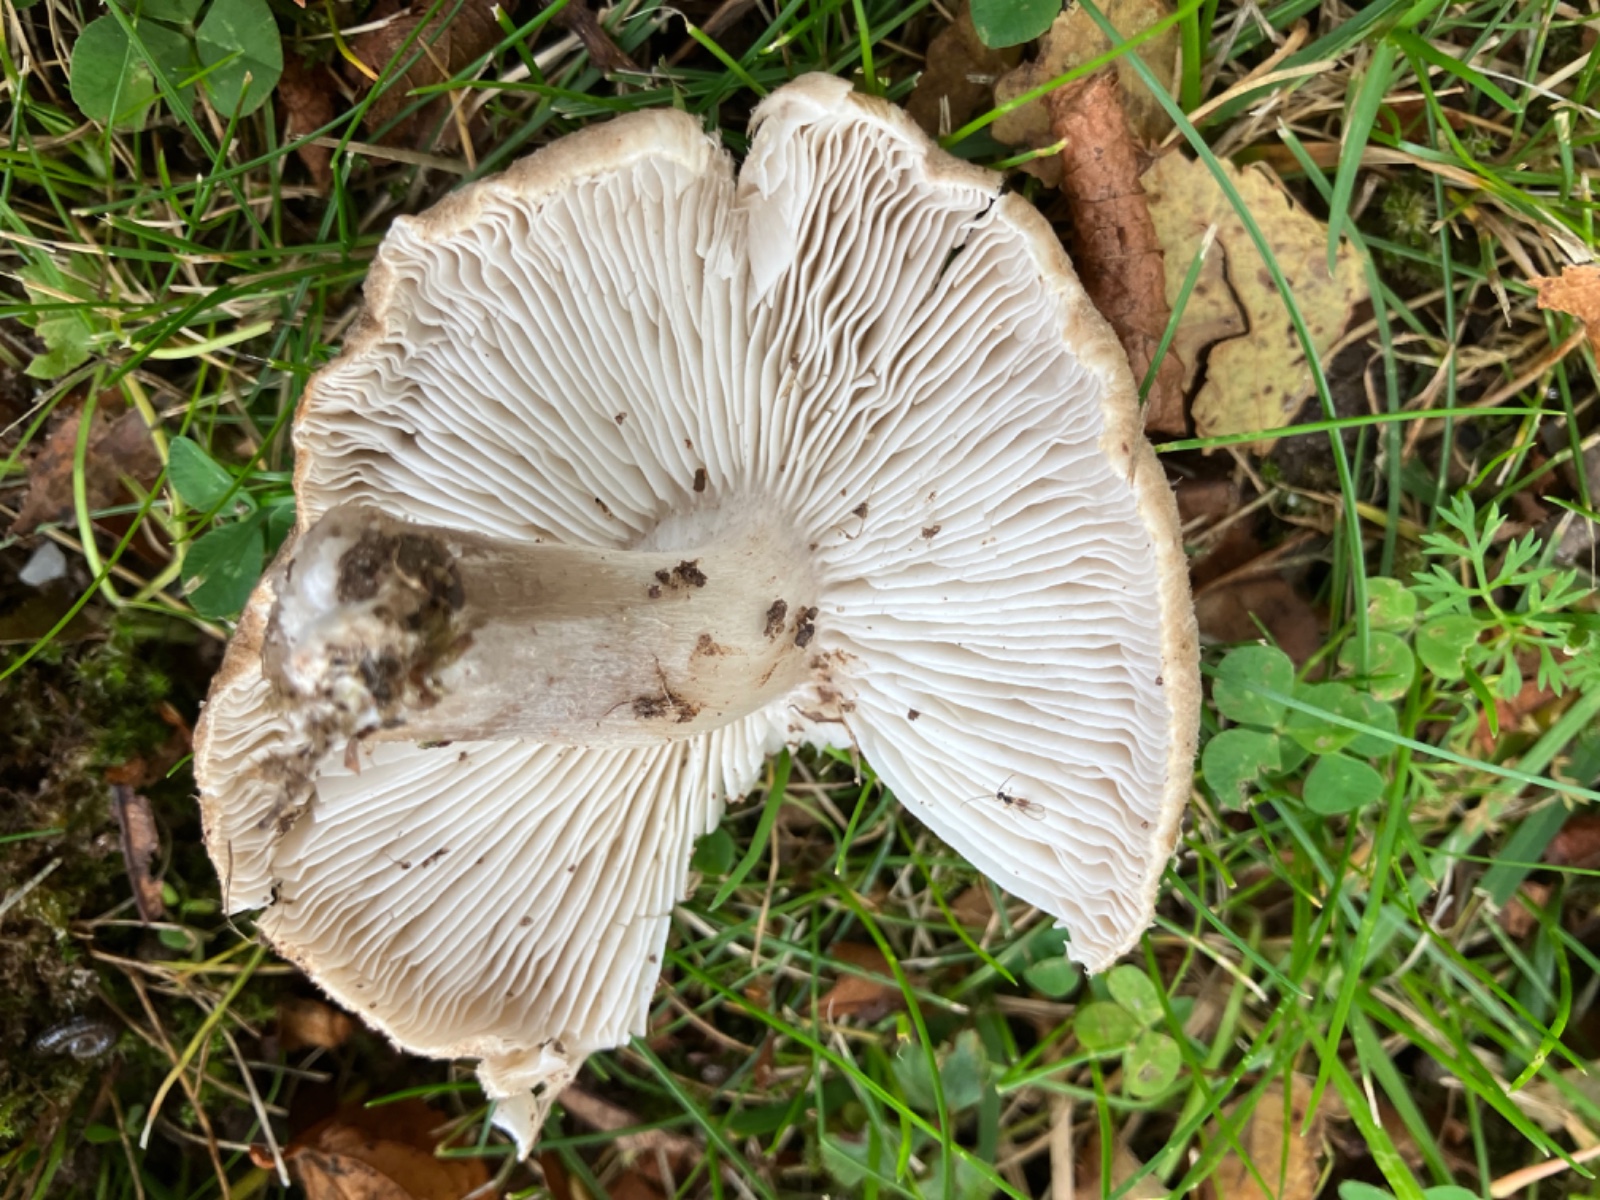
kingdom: Fungi
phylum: Basidiomycota
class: Agaricomycetes
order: Agaricales
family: Tricholomataceae
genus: Tricholoma
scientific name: Tricholoma
